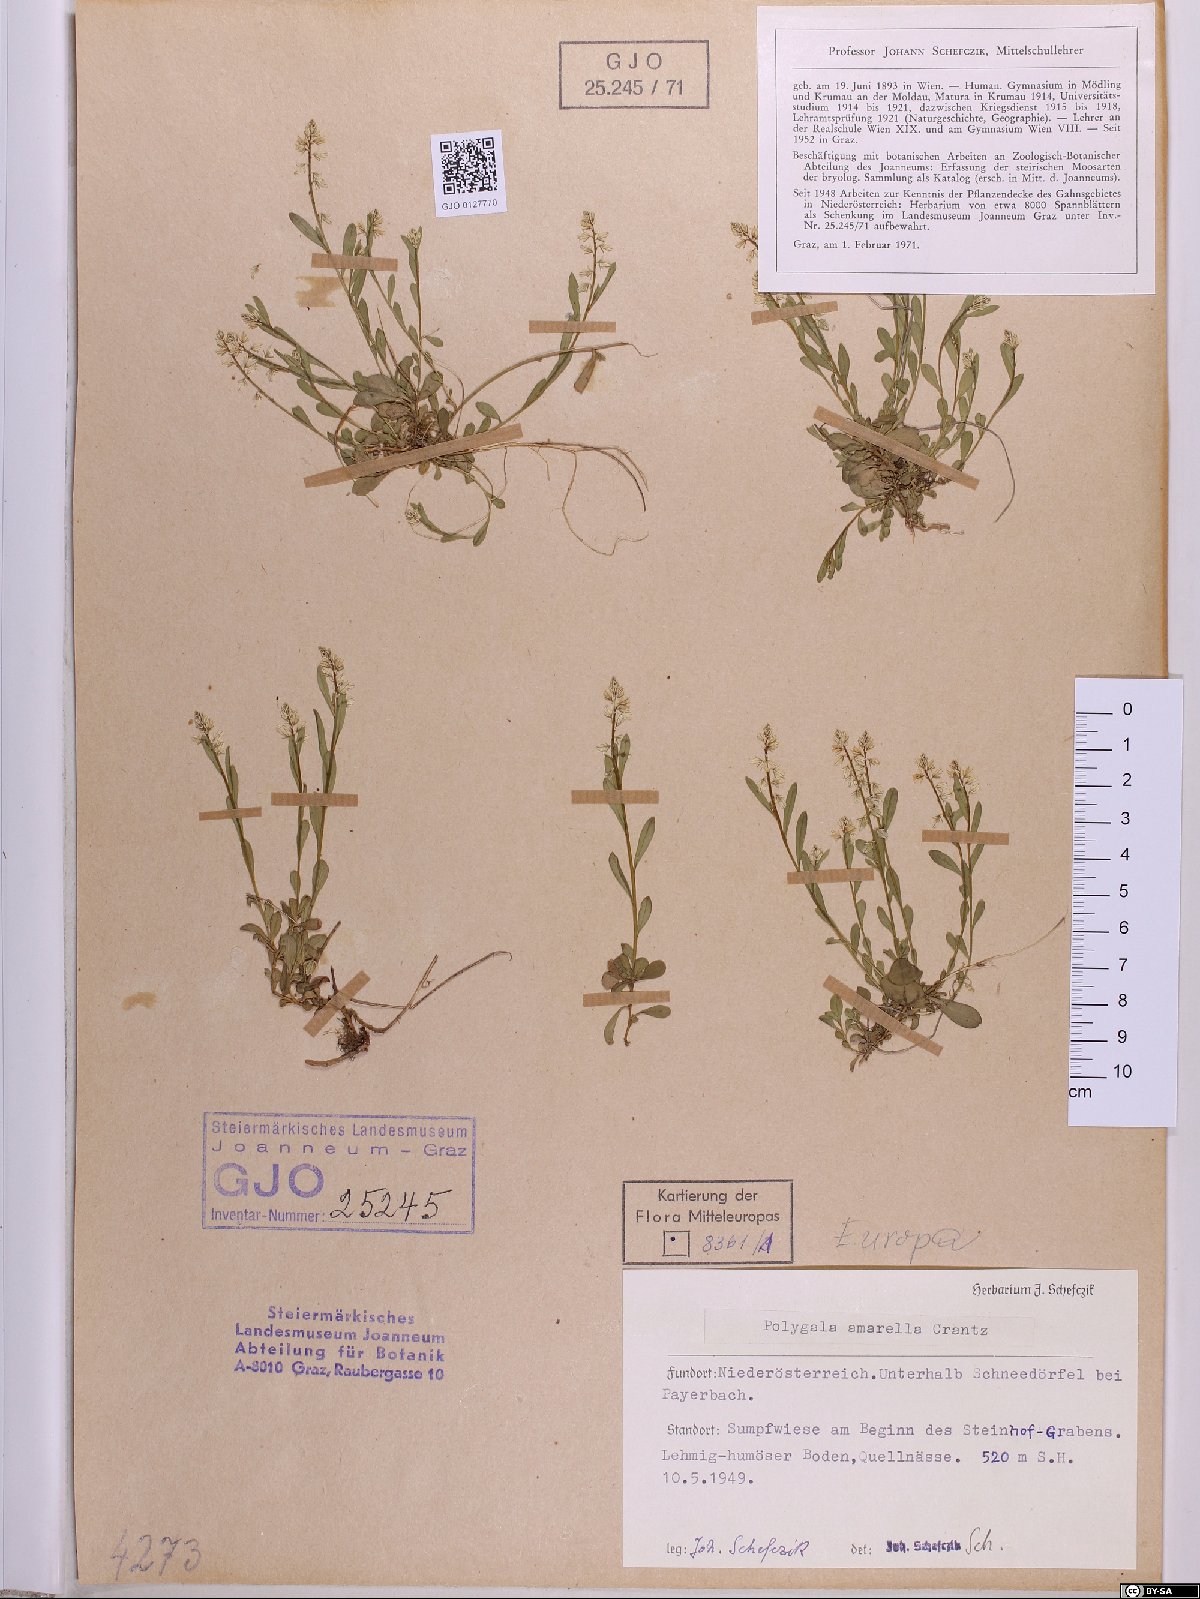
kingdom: Plantae
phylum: Tracheophyta
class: Magnoliopsida
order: Fabales
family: Polygalaceae
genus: Polygala
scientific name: Polygala amarella
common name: Dwarf milkwort
